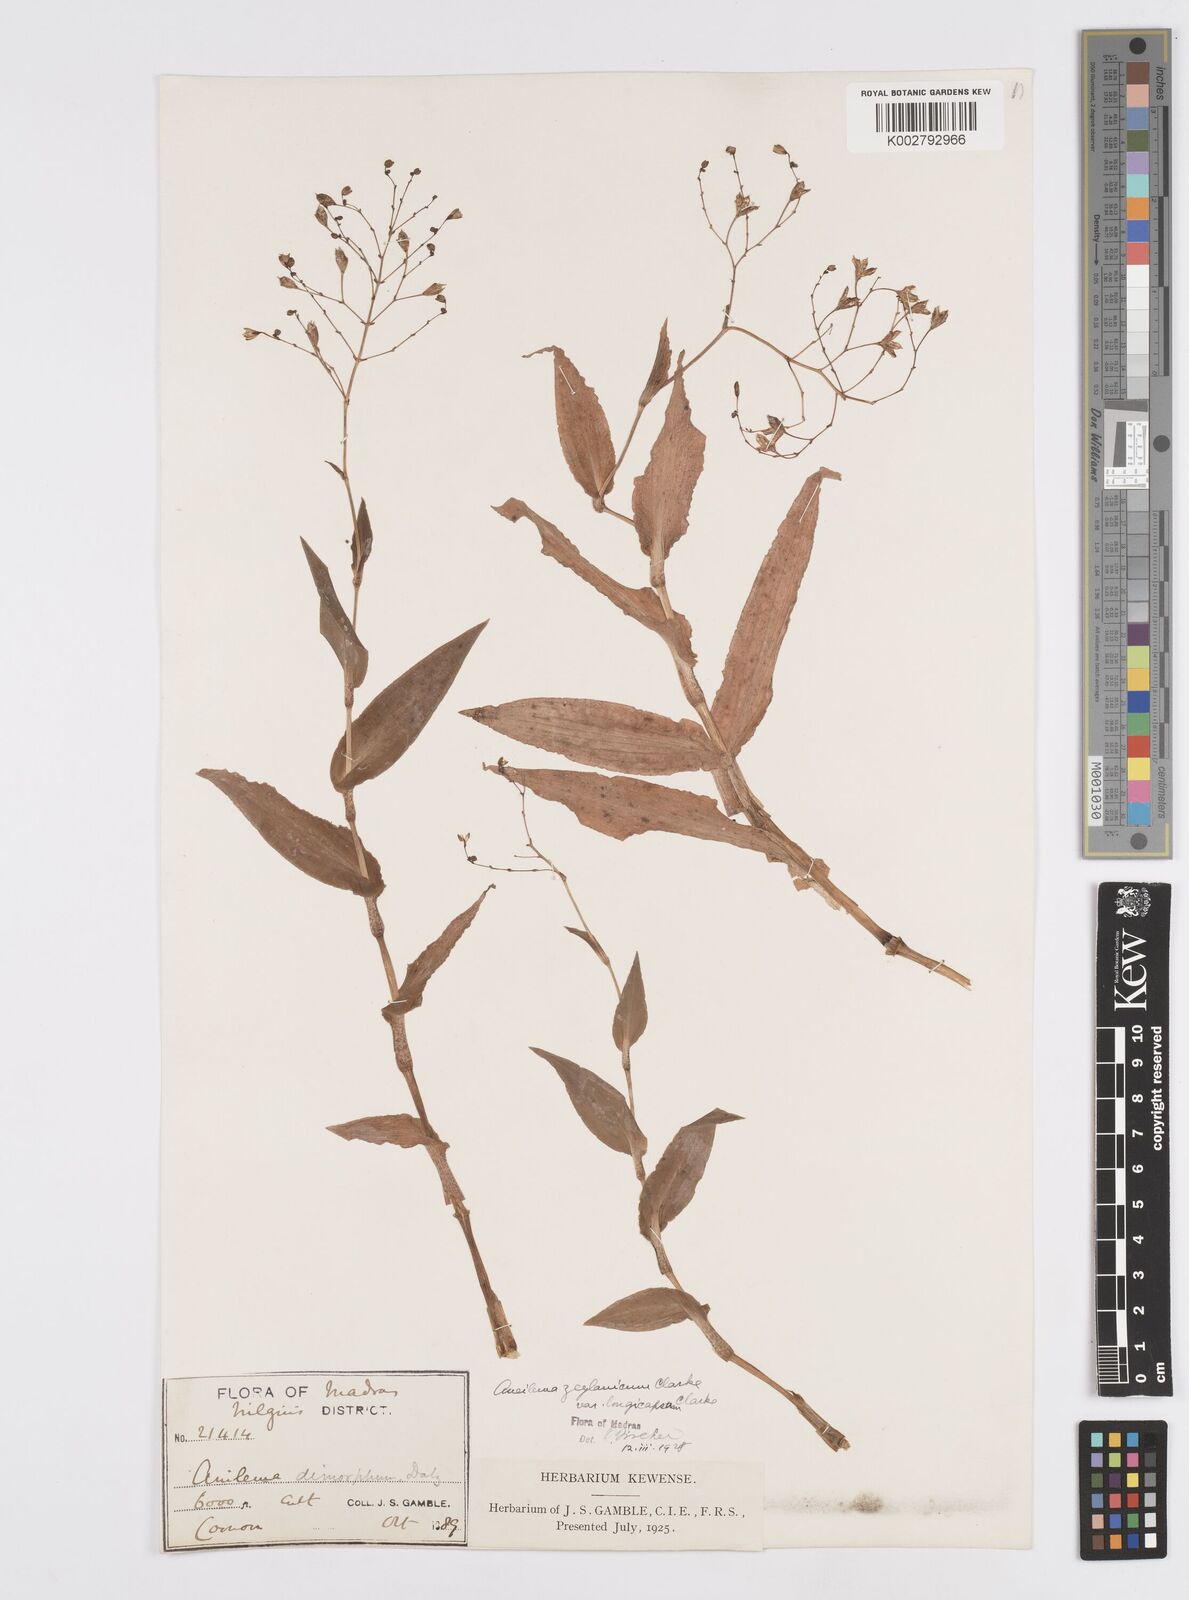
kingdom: Plantae
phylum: Tracheophyta
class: Liliopsida
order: Commelinales
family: Commelinaceae
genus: Murdannia
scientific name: Murdannia zeylanica
